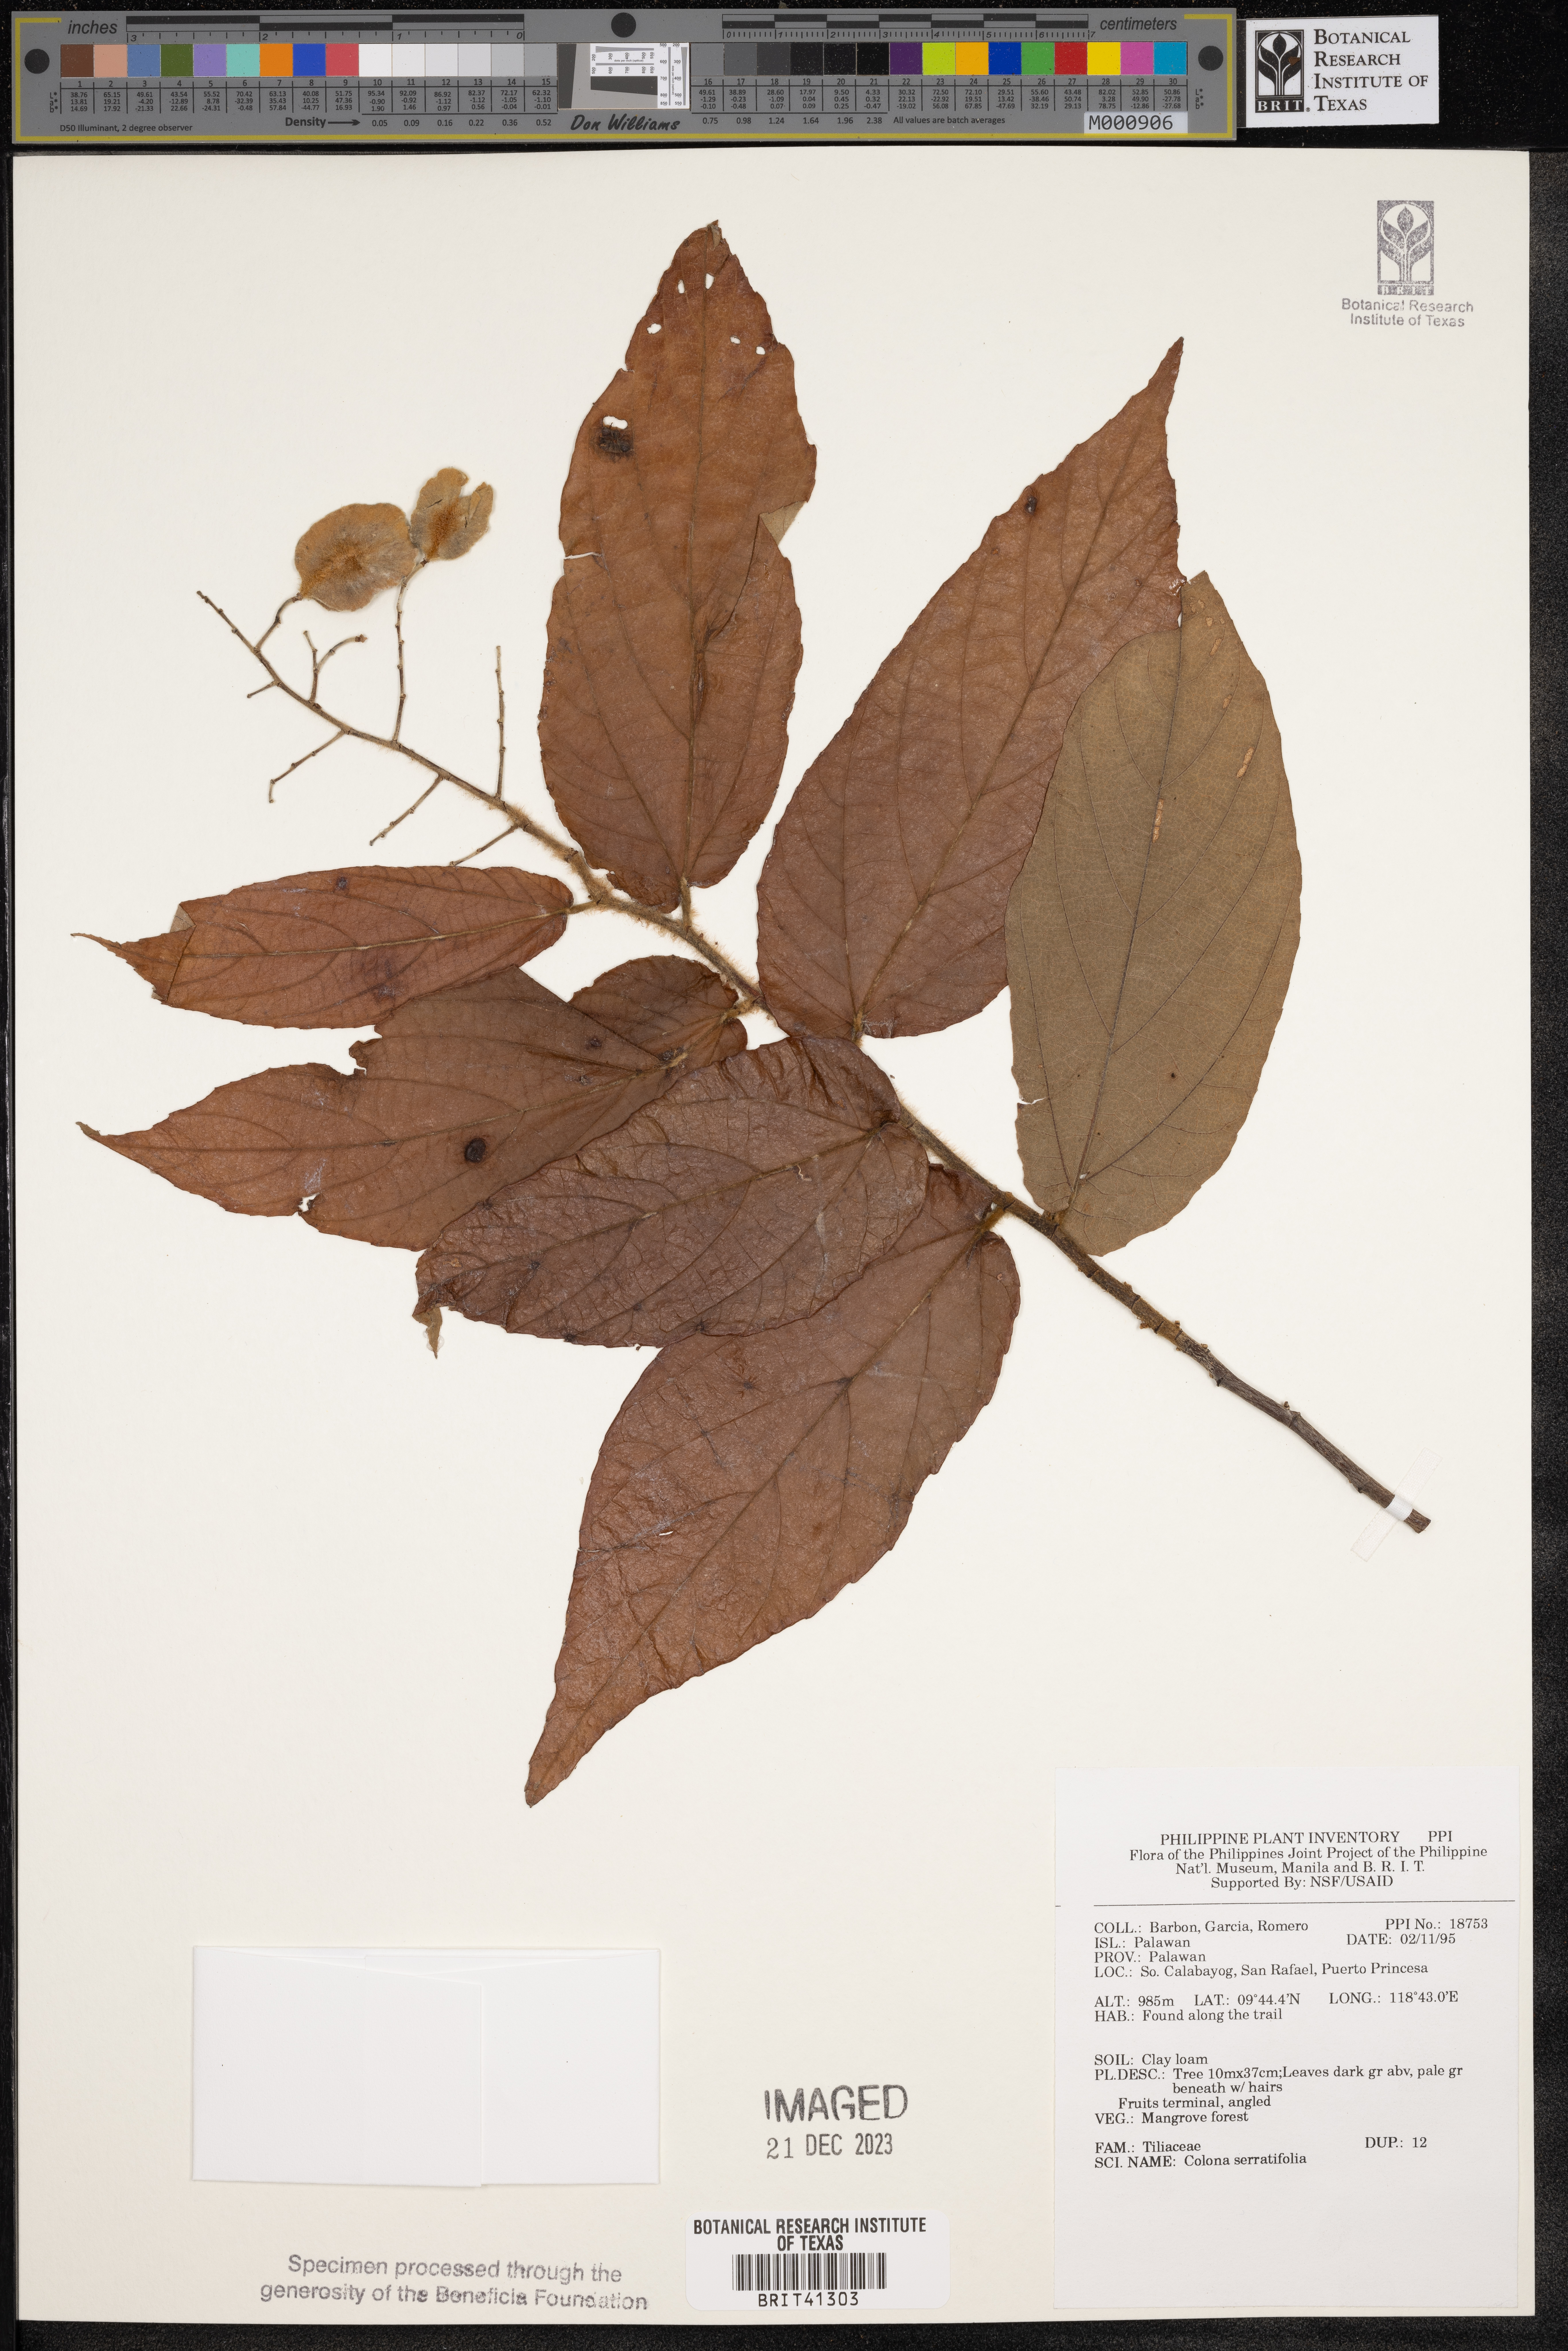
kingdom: Plantae
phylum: Tracheophyta
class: Magnoliopsida
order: Malvales
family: Malvaceae
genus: Colona
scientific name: Colona serratifolia
